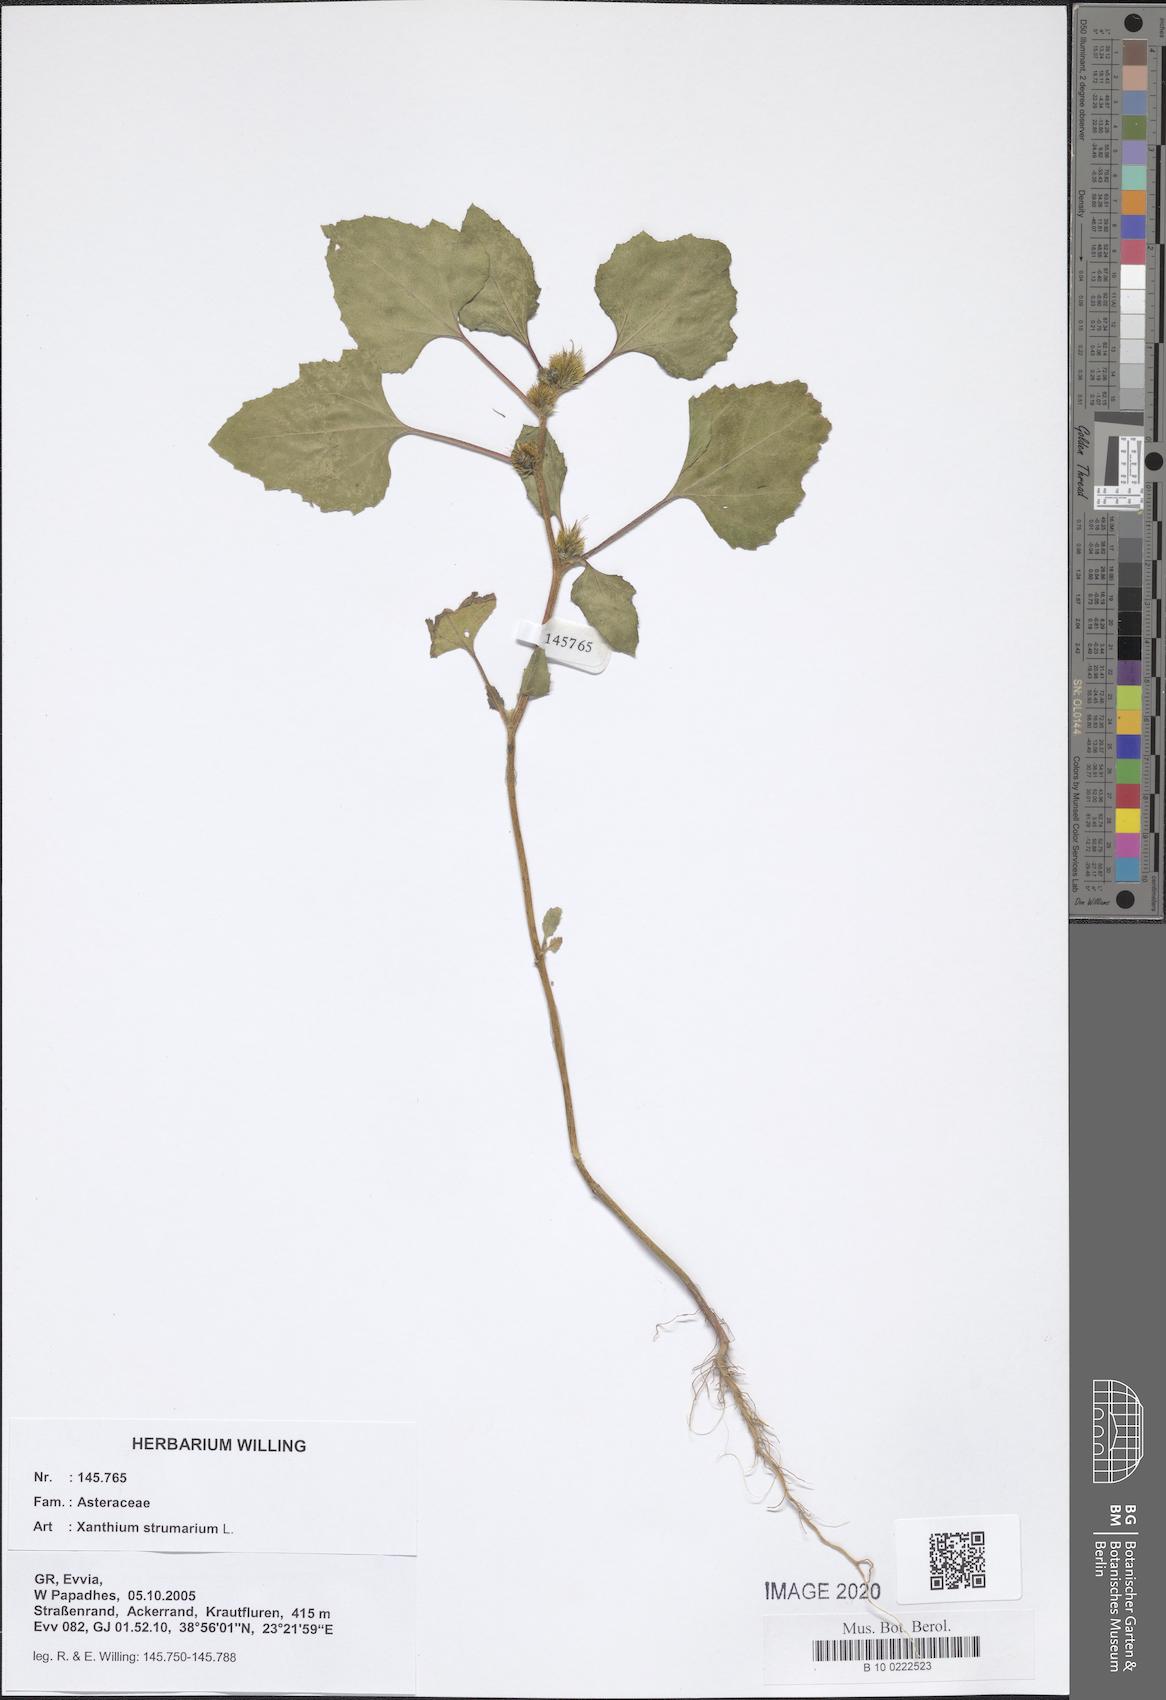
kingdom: Plantae
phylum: Tracheophyta
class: Magnoliopsida
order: Asterales
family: Asteraceae
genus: Xanthium
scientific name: Xanthium strumarium
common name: Rough cocklebur
